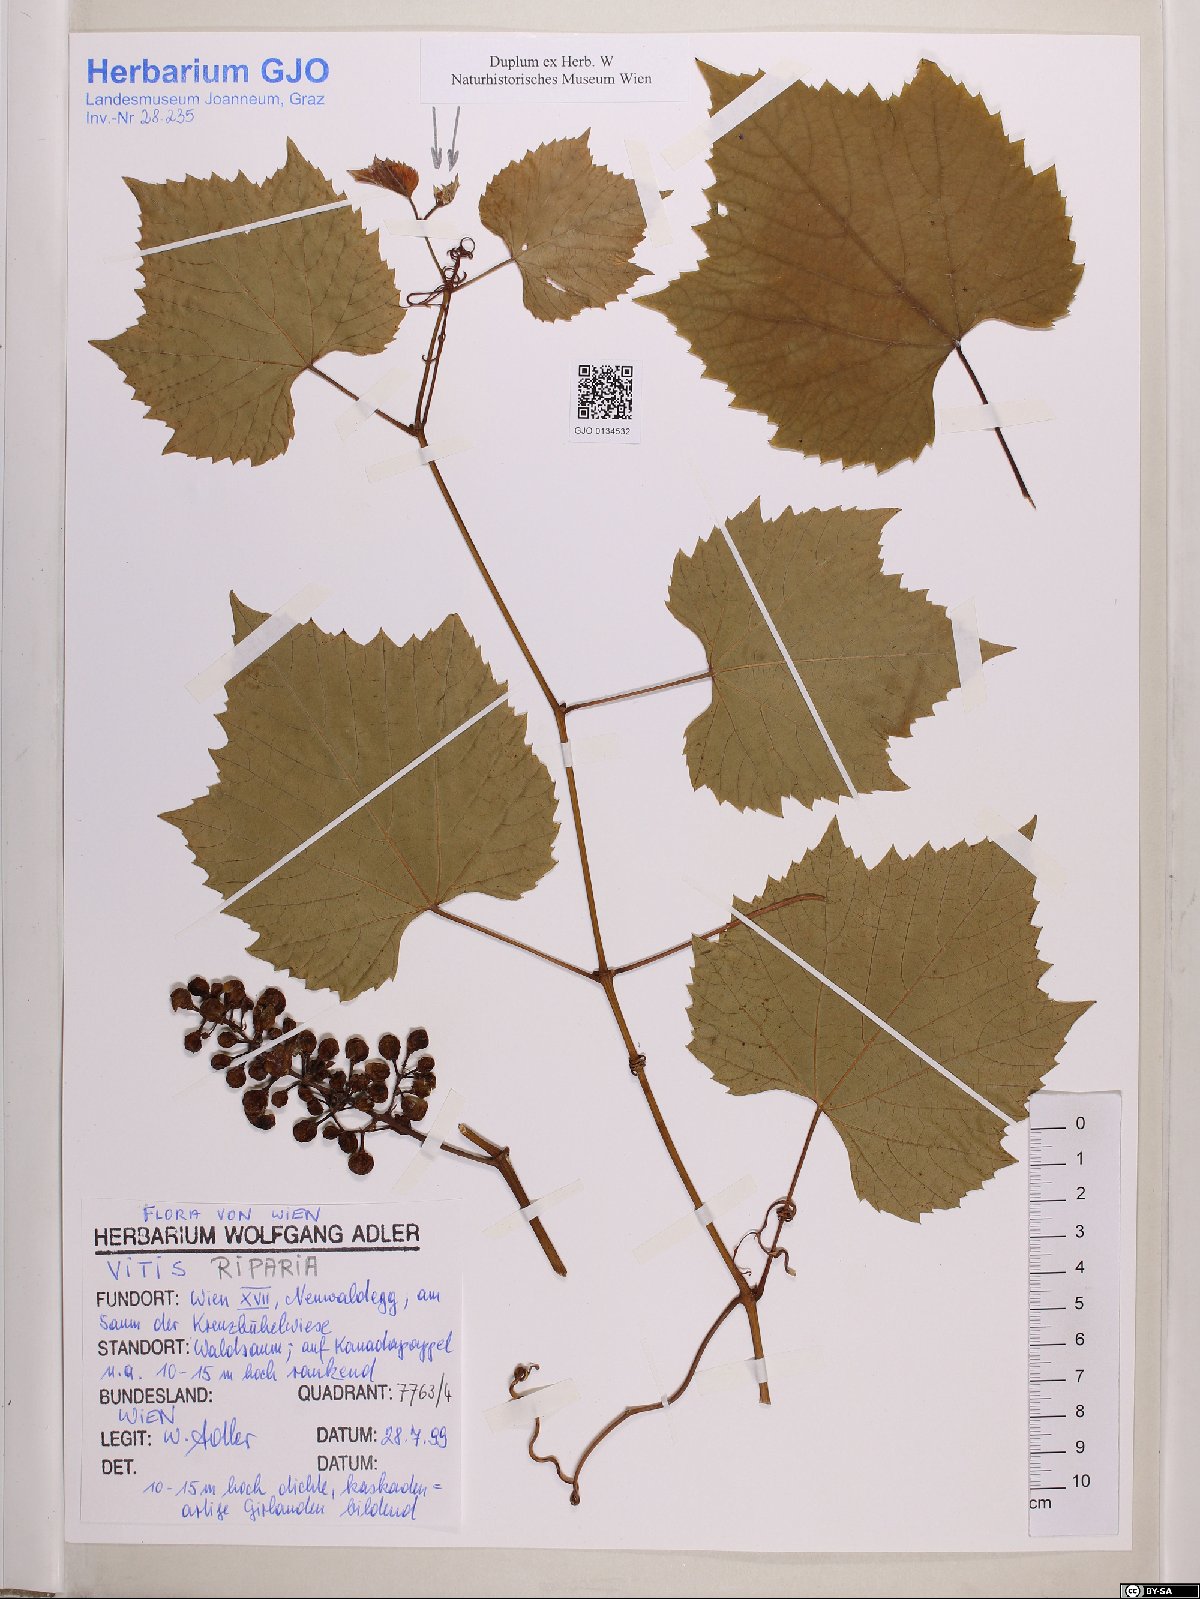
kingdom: Plantae
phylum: Tracheophyta
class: Magnoliopsida
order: Vitales
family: Vitaceae
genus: Vitis
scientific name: Vitis riparia
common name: Frost grape
